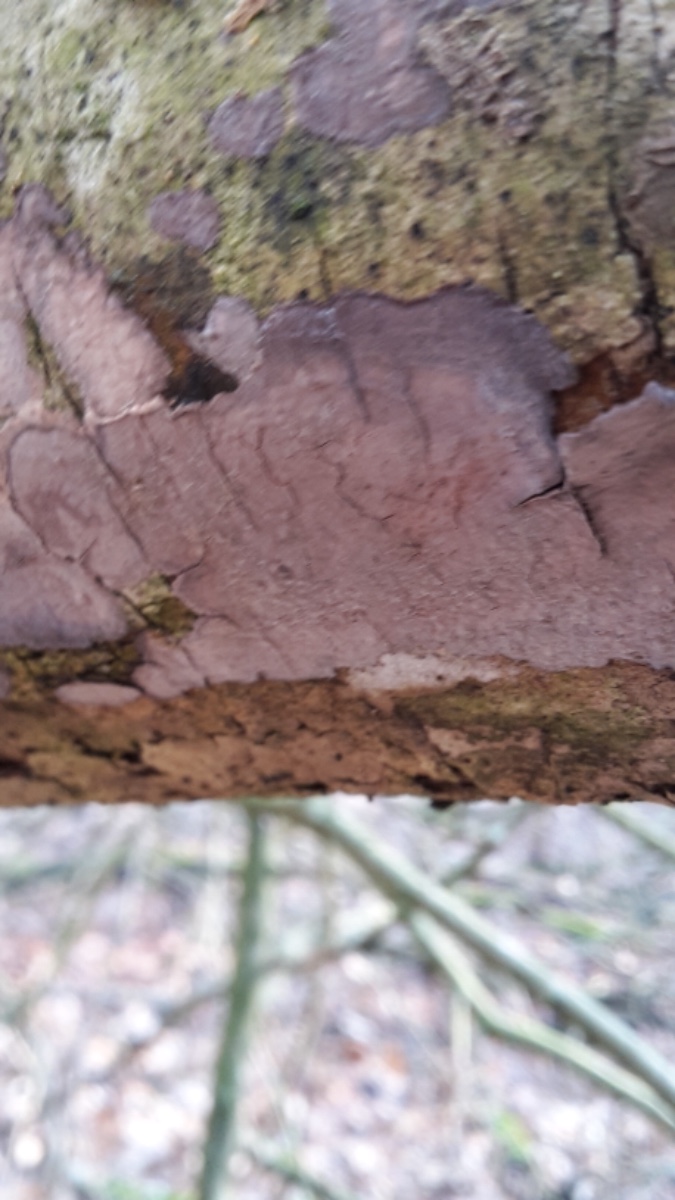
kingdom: Fungi
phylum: Basidiomycota
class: Agaricomycetes
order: Russulales
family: Peniophoraceae
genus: Peniophora
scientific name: Peniophora
